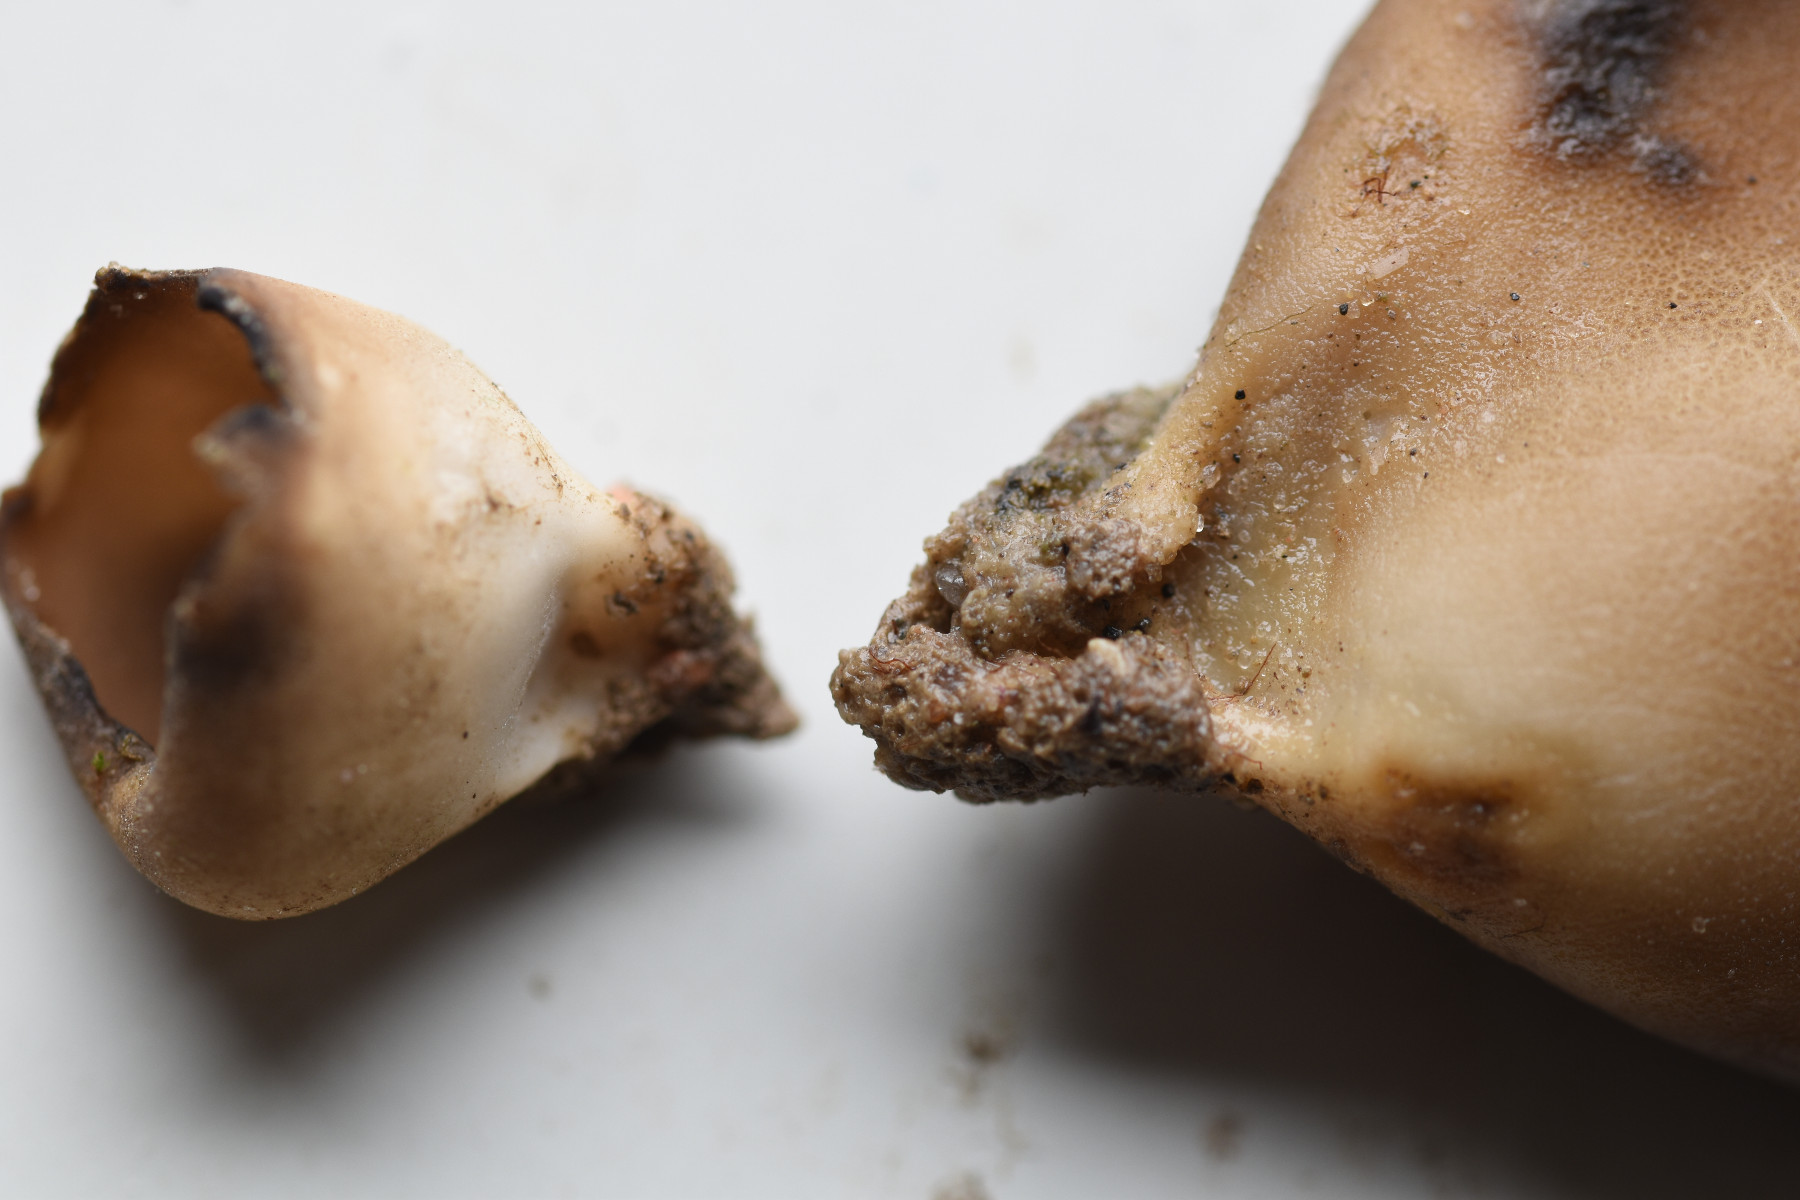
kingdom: Fungi
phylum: Ascomycota
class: Pezizomycetes
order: Pezizales
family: Helvellaceae
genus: Dissingia
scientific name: Dissingia leucomelaena
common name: sorthvid foldhat
